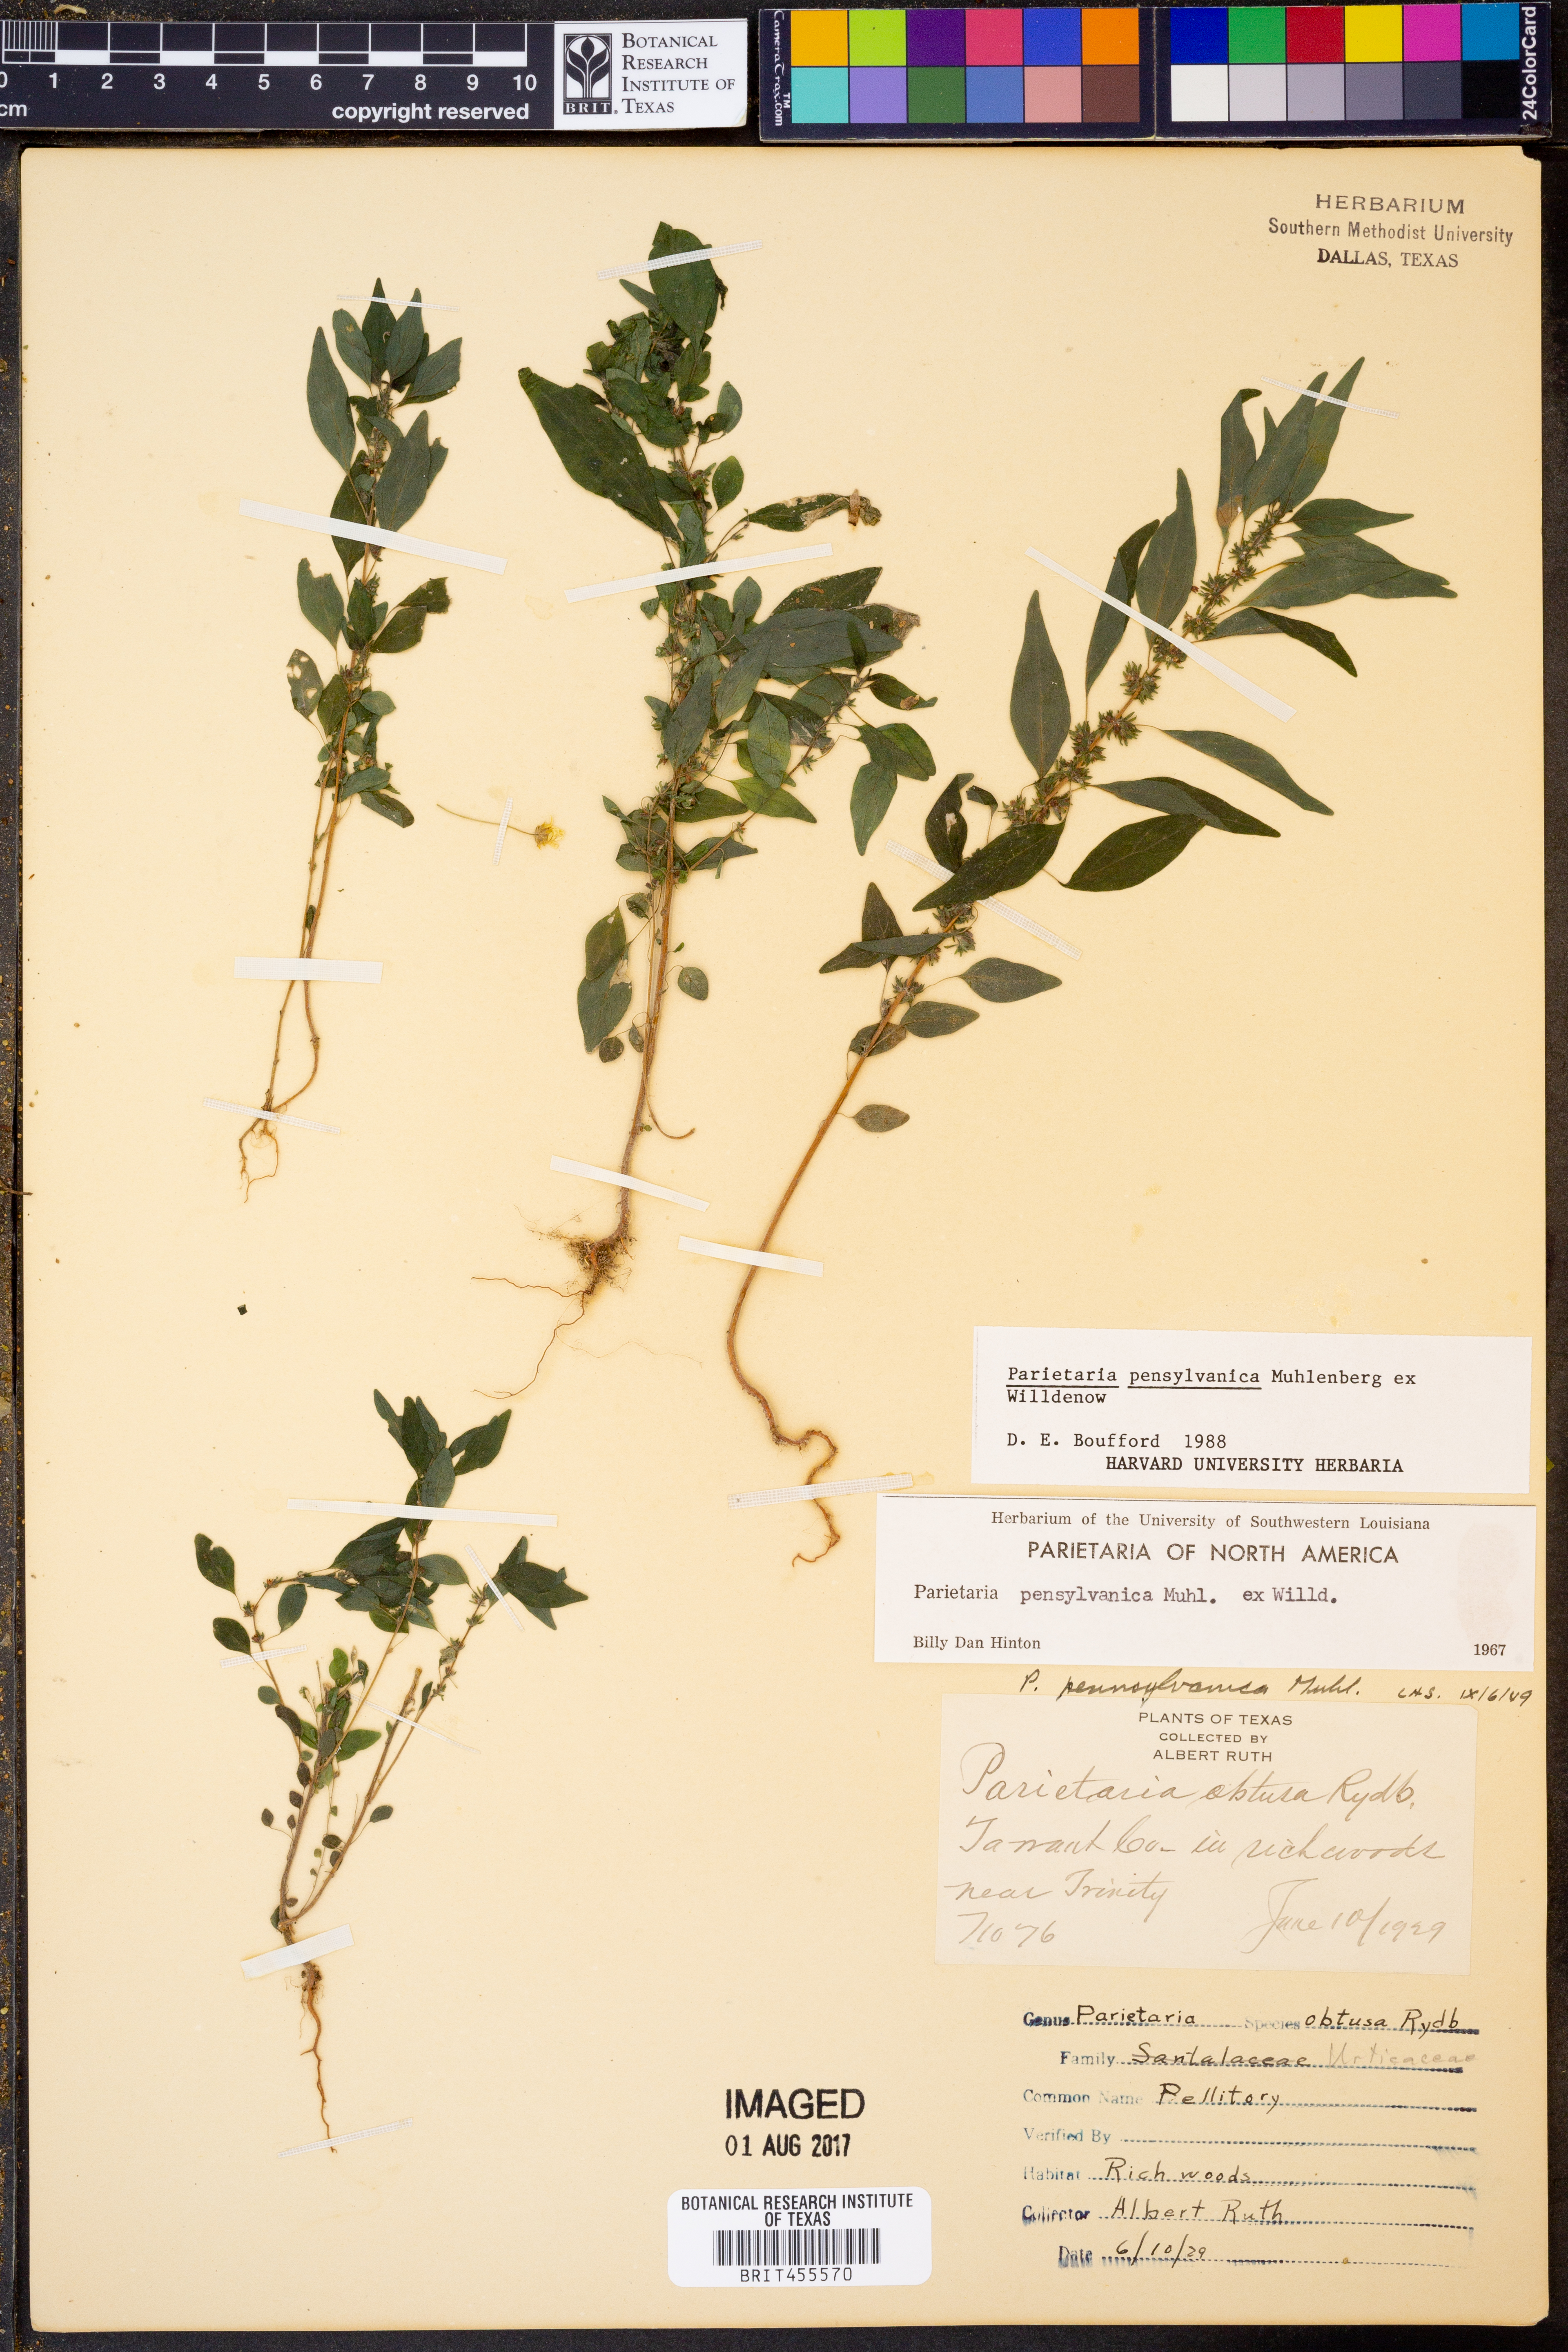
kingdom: Plantae
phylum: Tracheophyta
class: Magnoliopsida
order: Rosales
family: Urticaceae
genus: Parietaria
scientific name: Parietaria pensylvanica
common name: Pennsylvania pellitory
